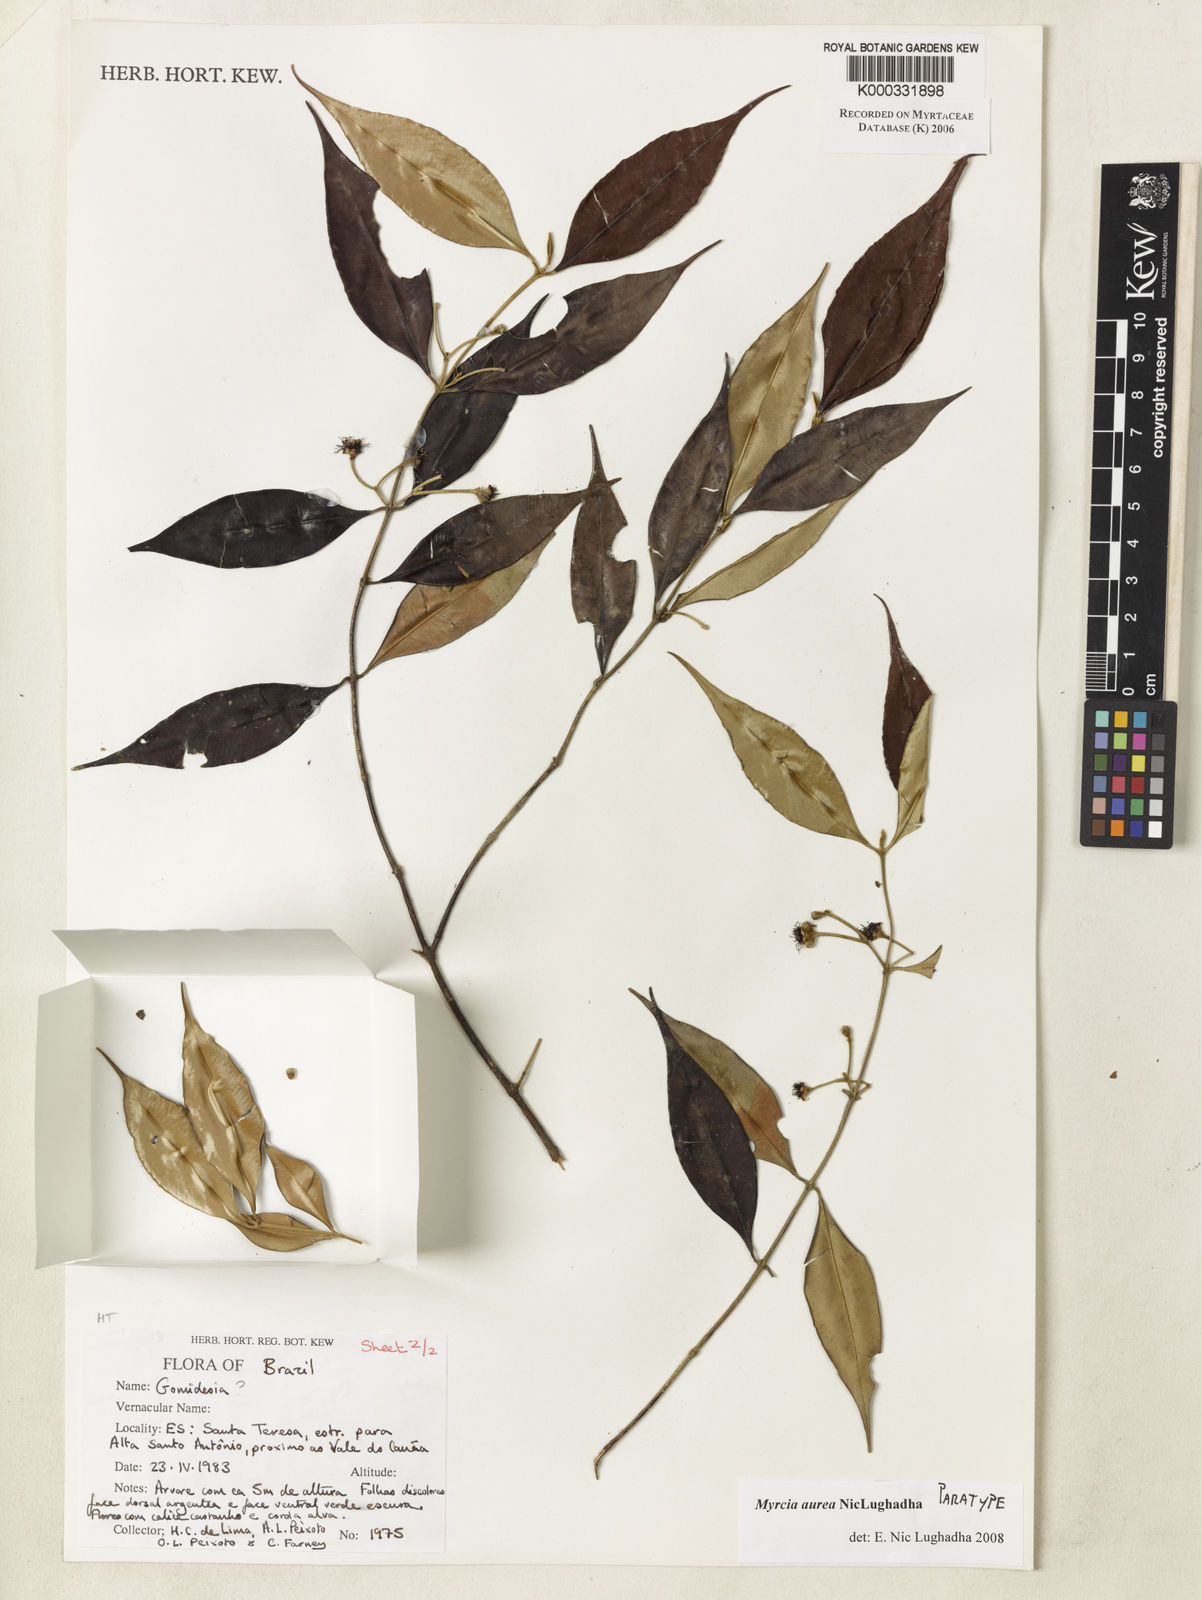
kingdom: Plantae
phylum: Tracheophyta
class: Magnoliopsida
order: Myrtales
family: Myrtaceae
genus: Myrcia
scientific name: Myrcia aurea
